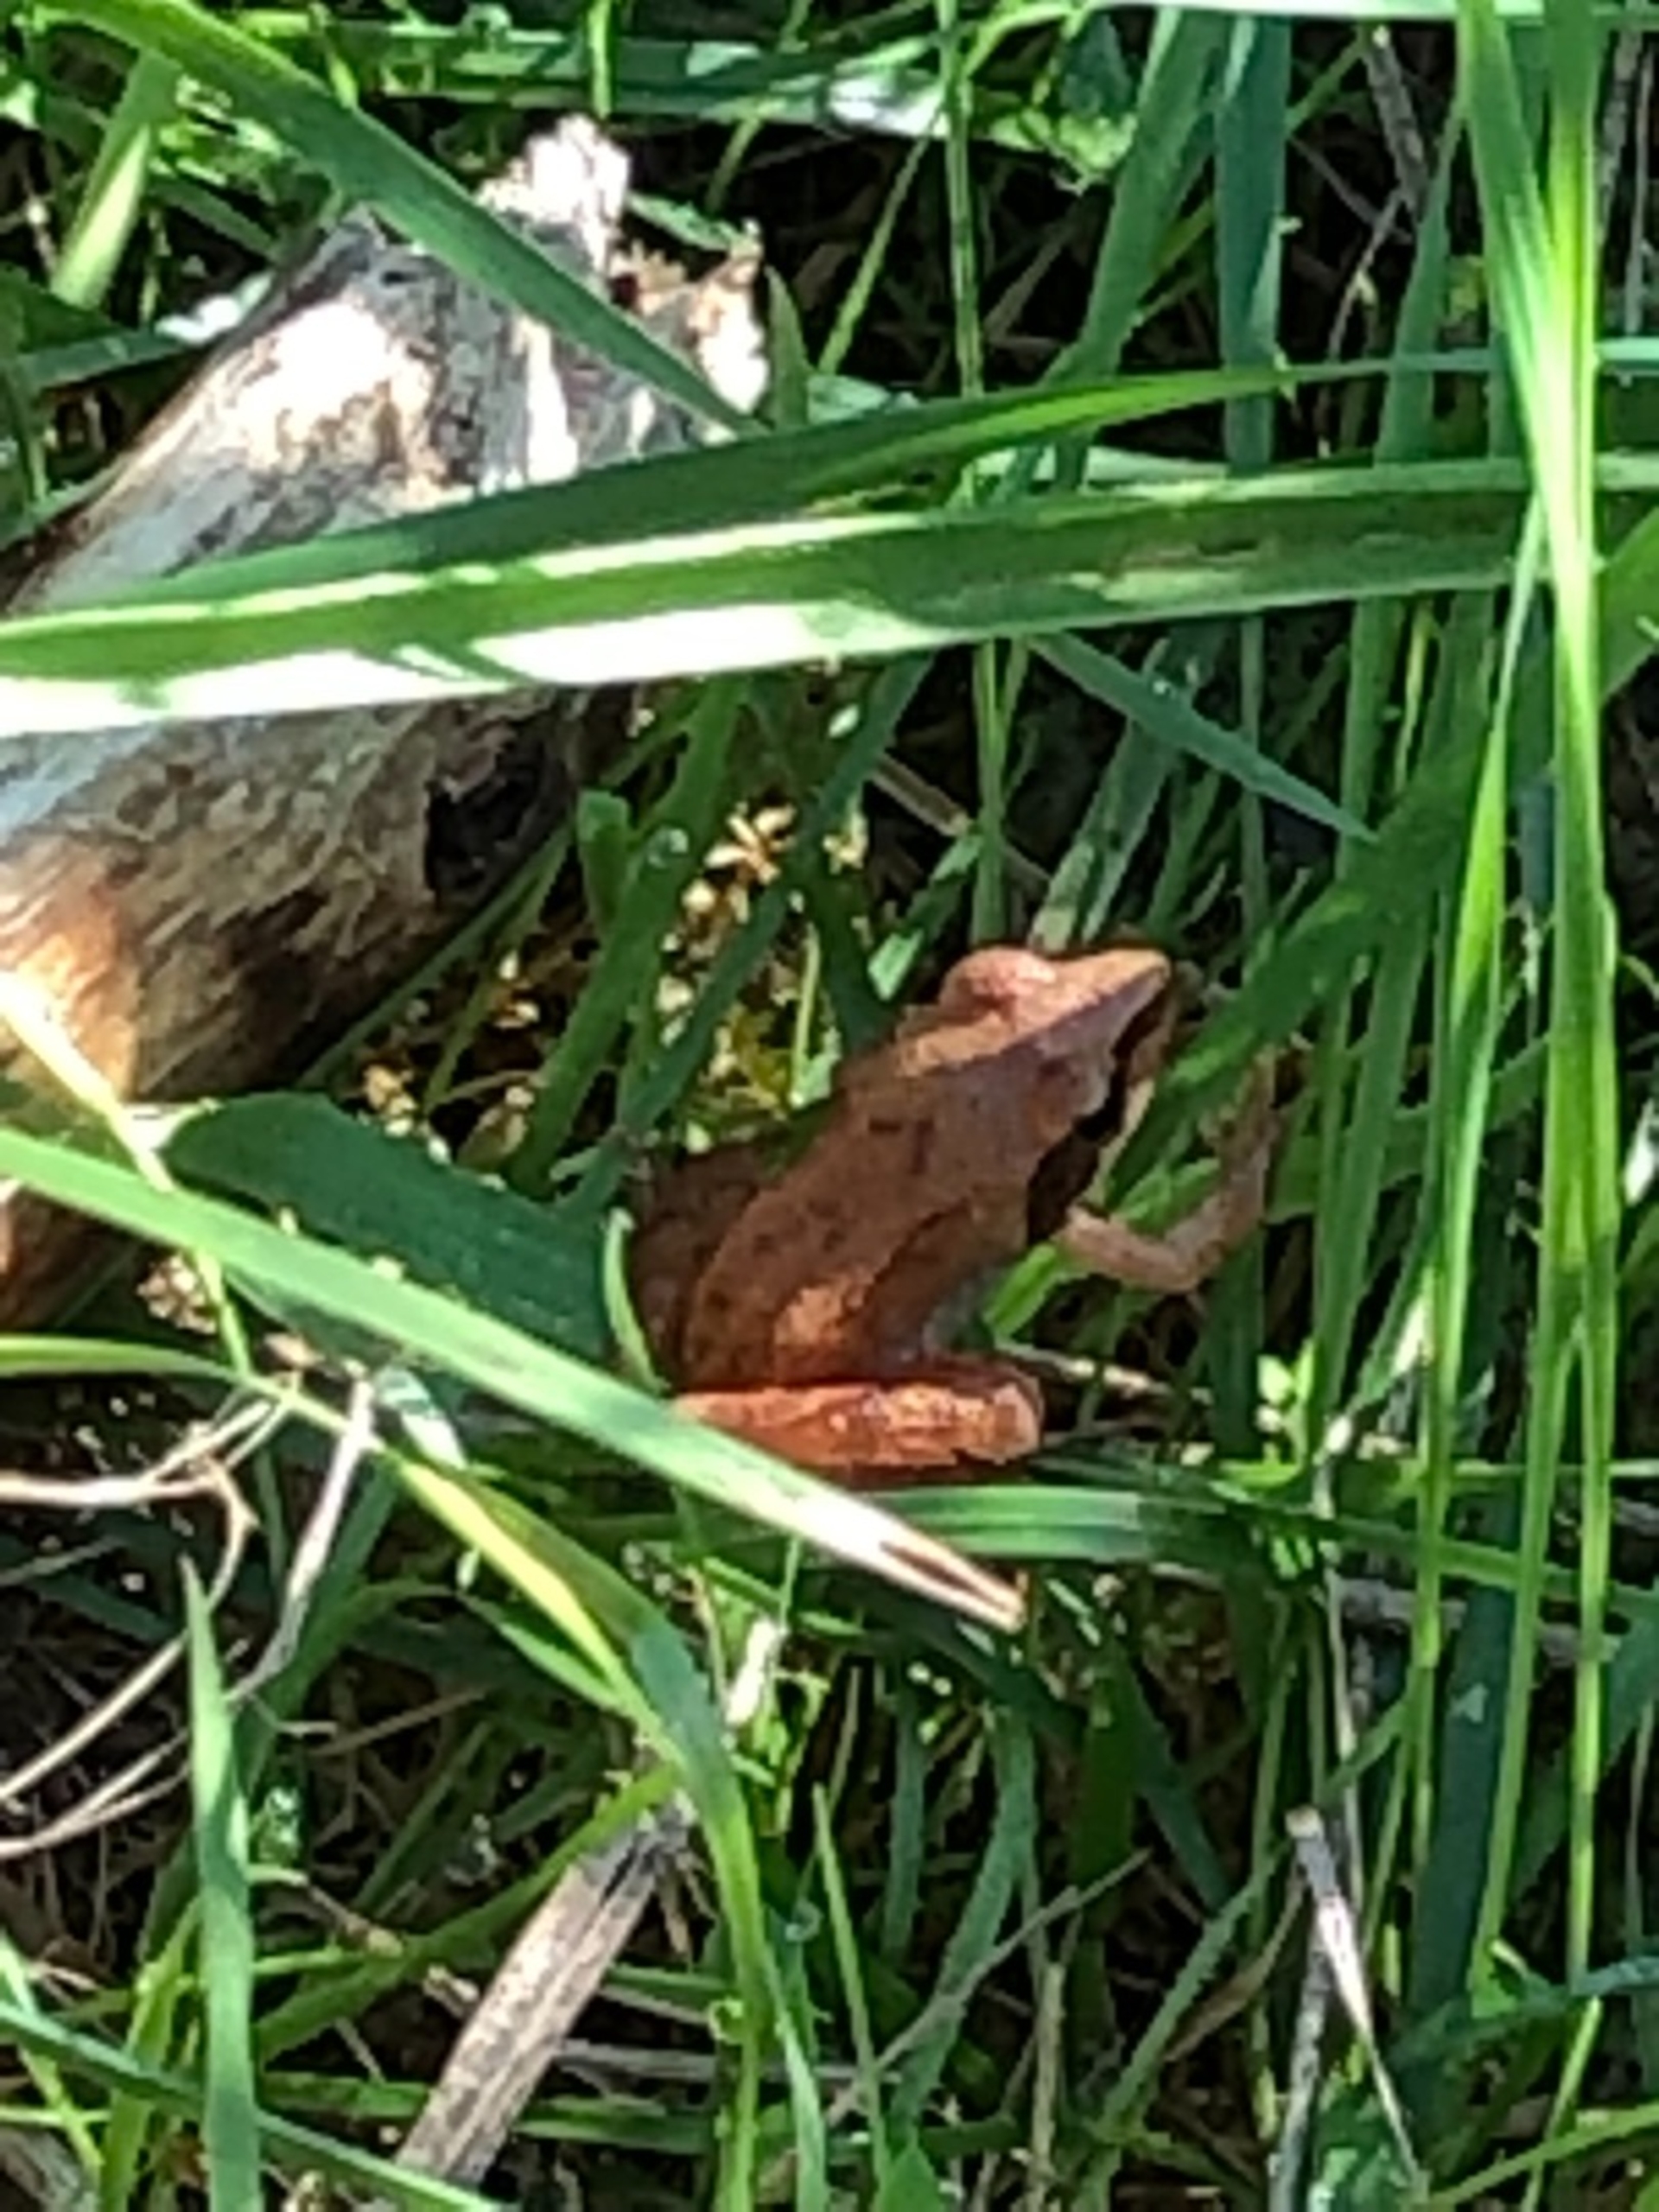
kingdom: Animalia
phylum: Chordata
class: Amphibia
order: Anura
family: Ranidae
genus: Rana
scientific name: Rana dalmatina
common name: Springfrø
